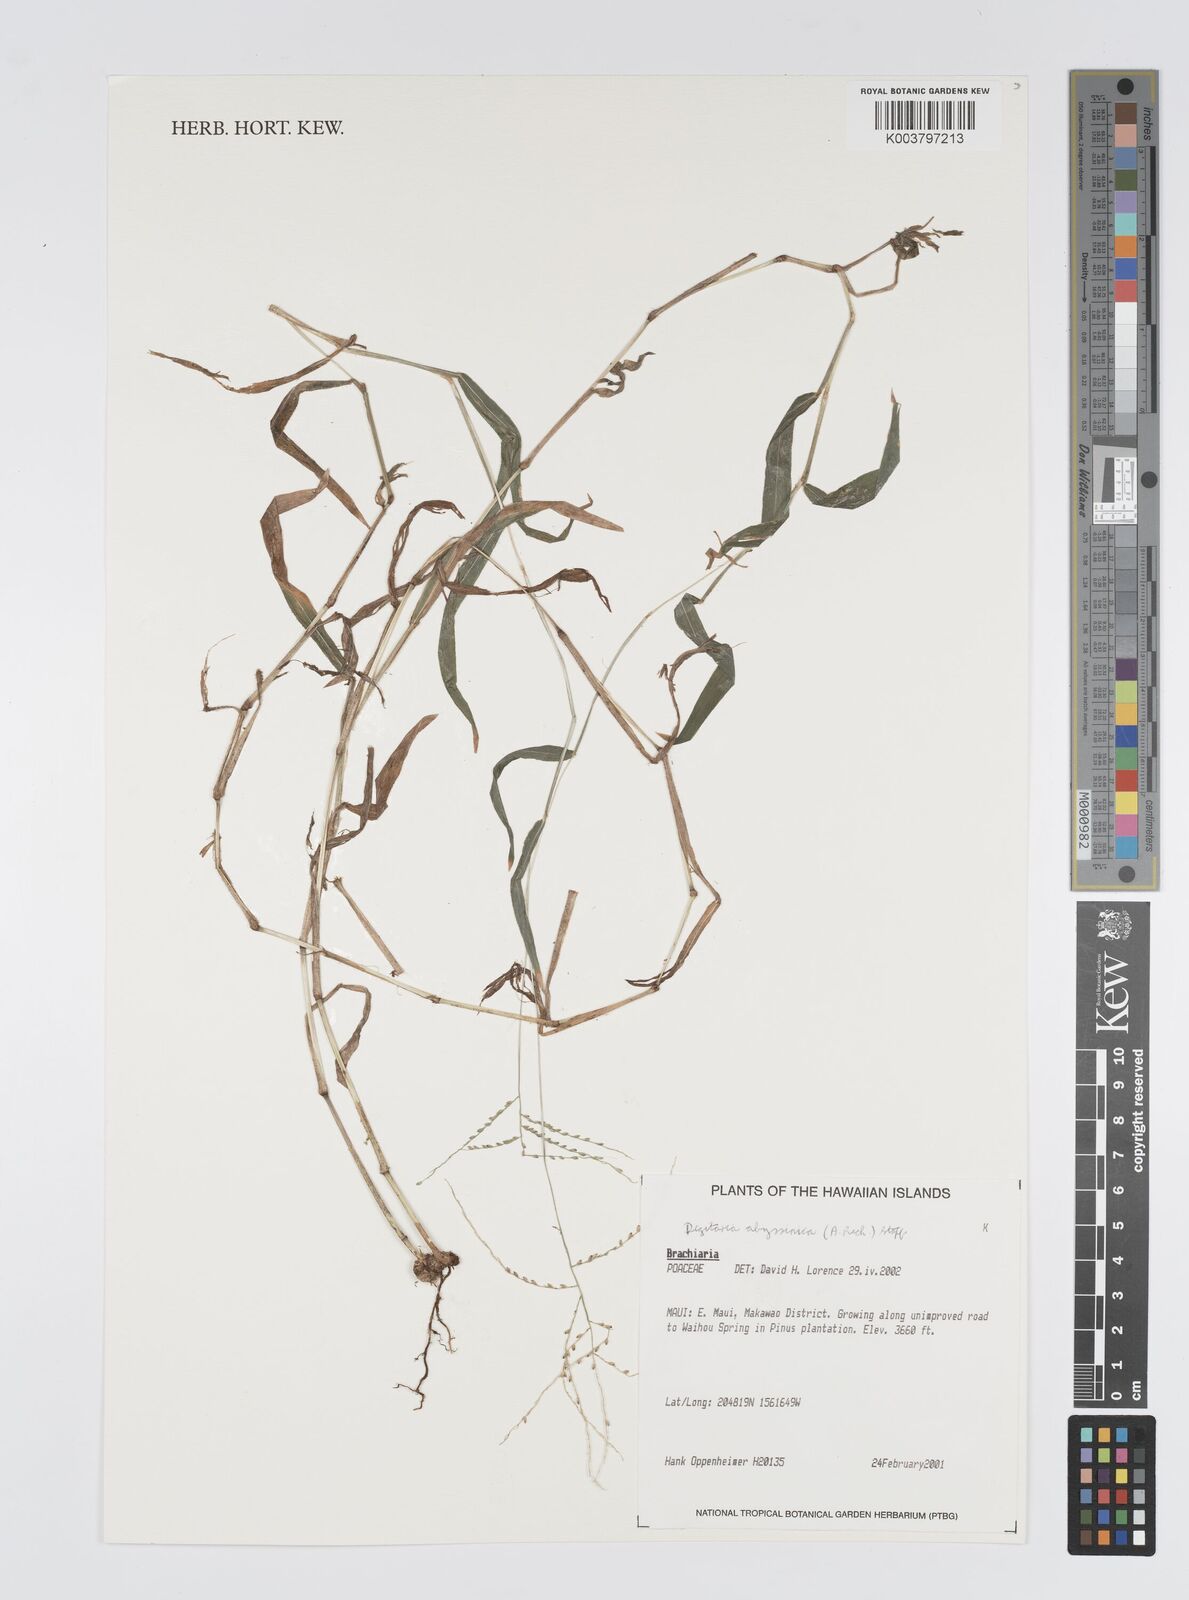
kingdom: Plantae
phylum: Tracheophyta
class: Liliopsida
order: Poales
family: Poaceae
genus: Digitaria
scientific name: Digitaria abyssinica
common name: African couchgrass
